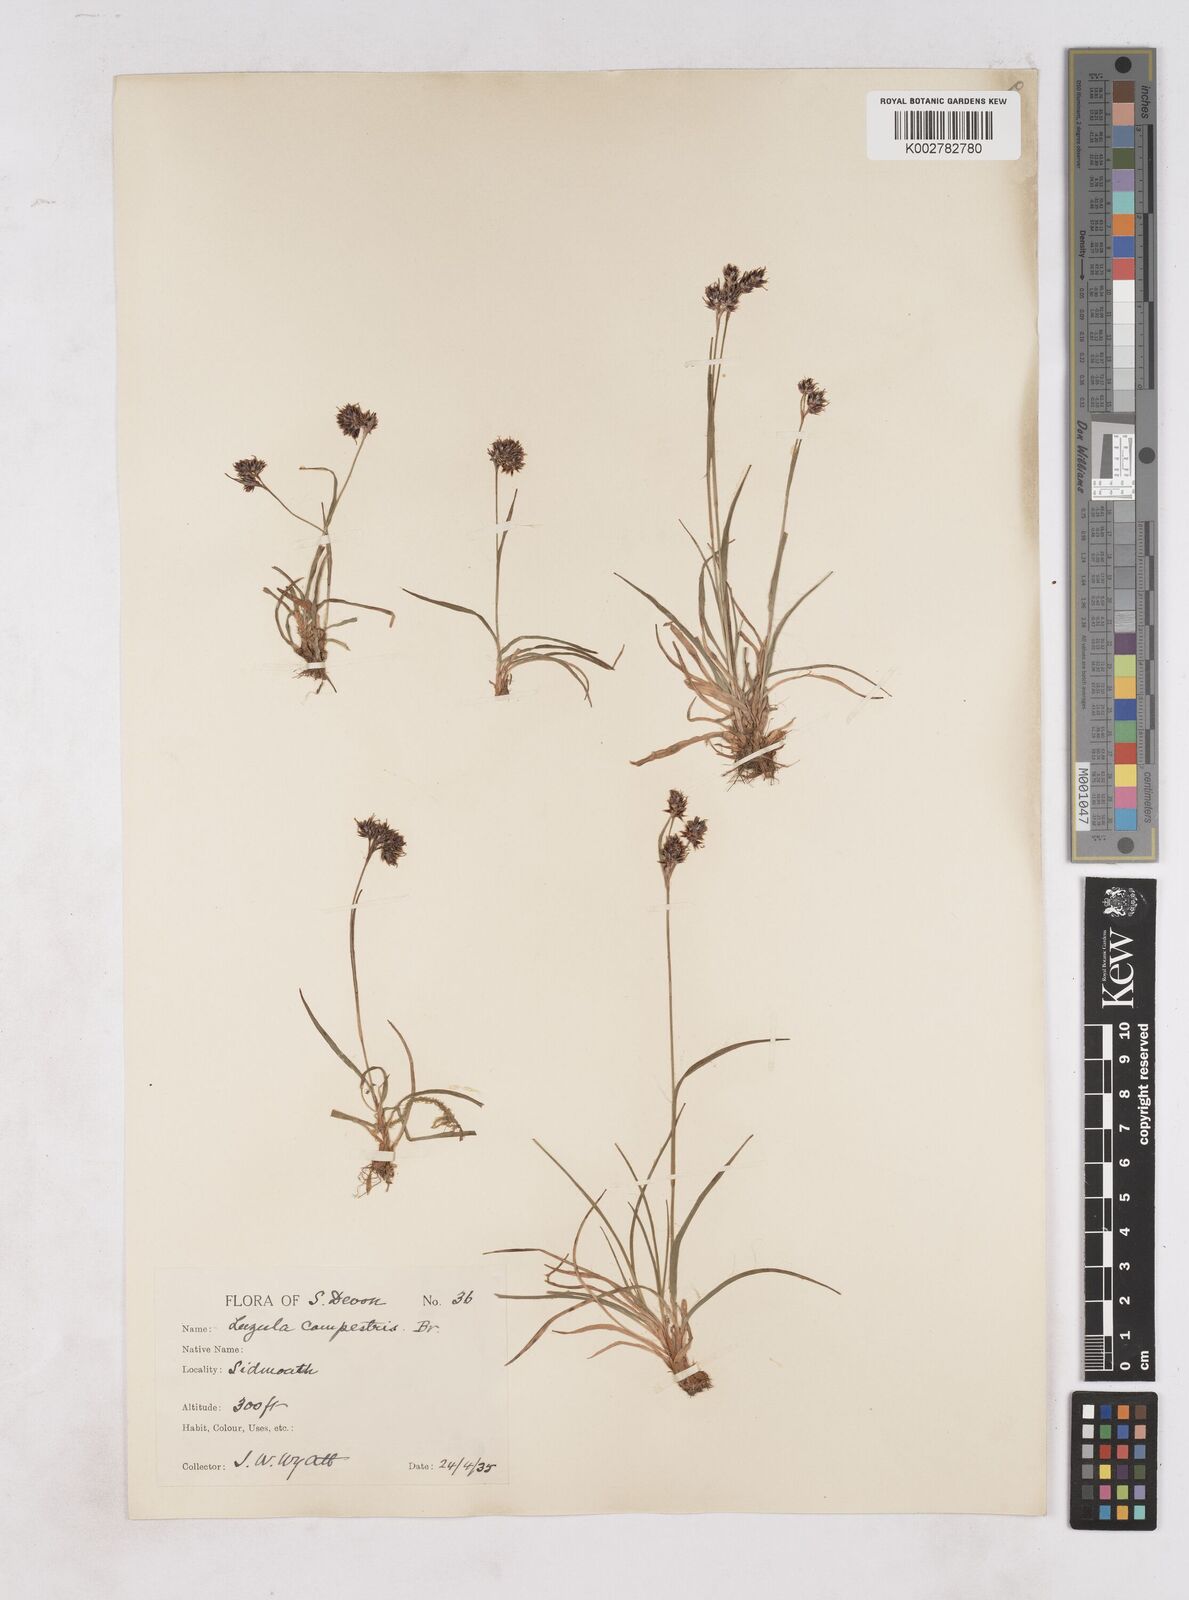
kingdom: Plantae
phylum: Tracheophyta
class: Liliopsida
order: Poales
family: Juncaceae
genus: Luzula
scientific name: Luzula campestris
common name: Field wood-rush
